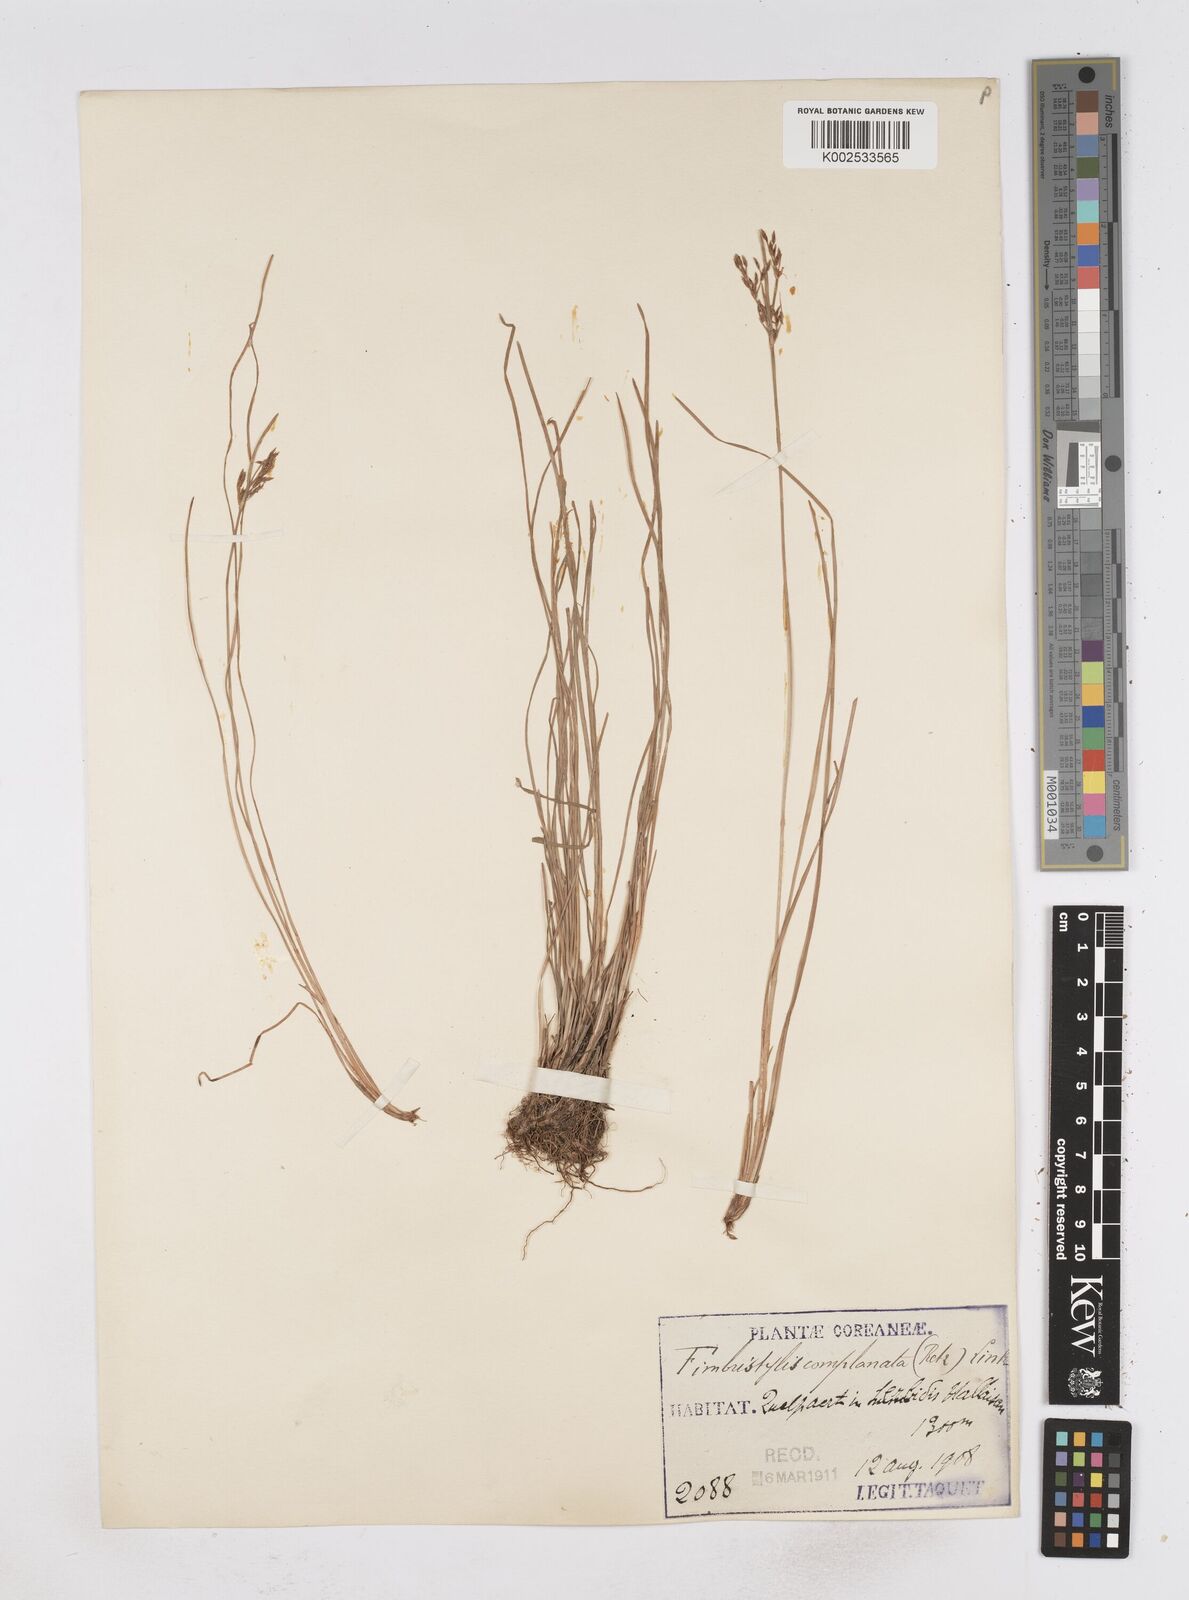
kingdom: Plantae
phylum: Tracheophyta
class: Liliopsida
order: Poales
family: Cyperaceae
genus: Fimbristylis
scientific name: Fimbristylis consanguinea
